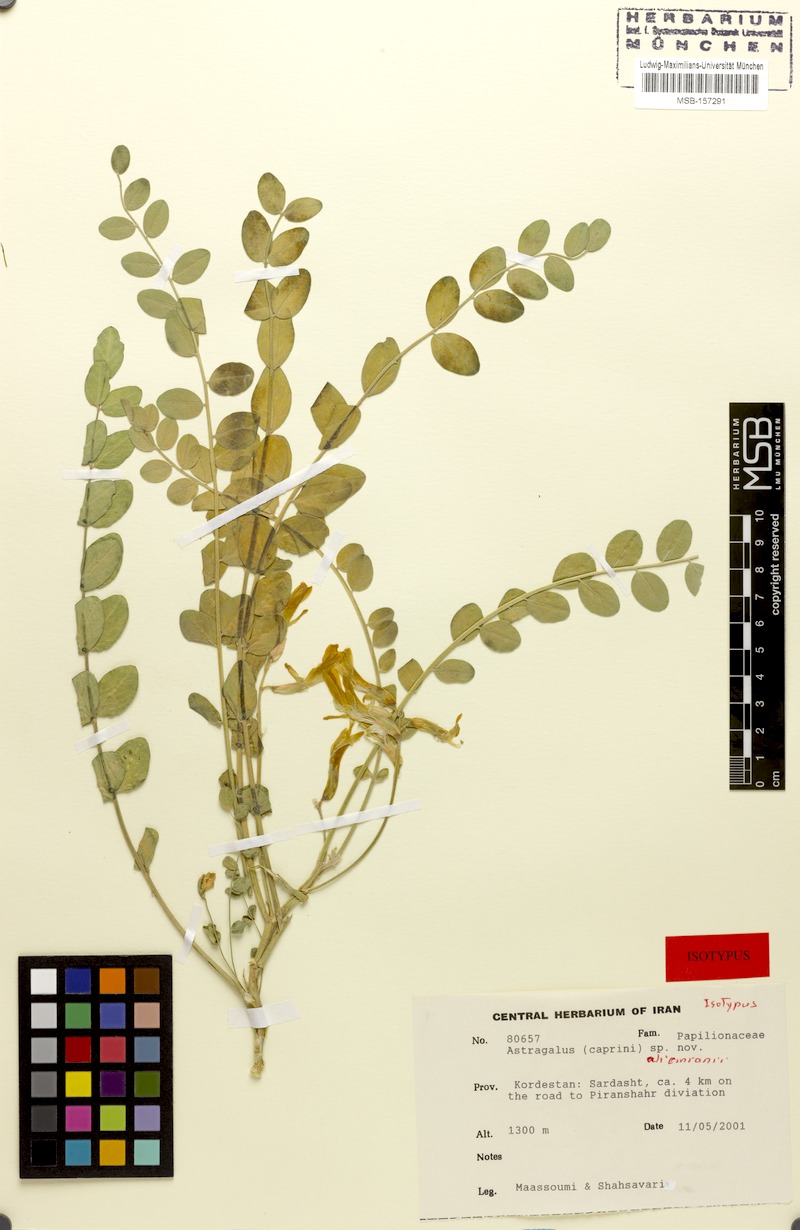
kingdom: Plantae
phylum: Tracheophyta
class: Magnoliopsida
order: Fabales
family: Fabaceae
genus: Astragalus
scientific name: Astragalus aliomranii
